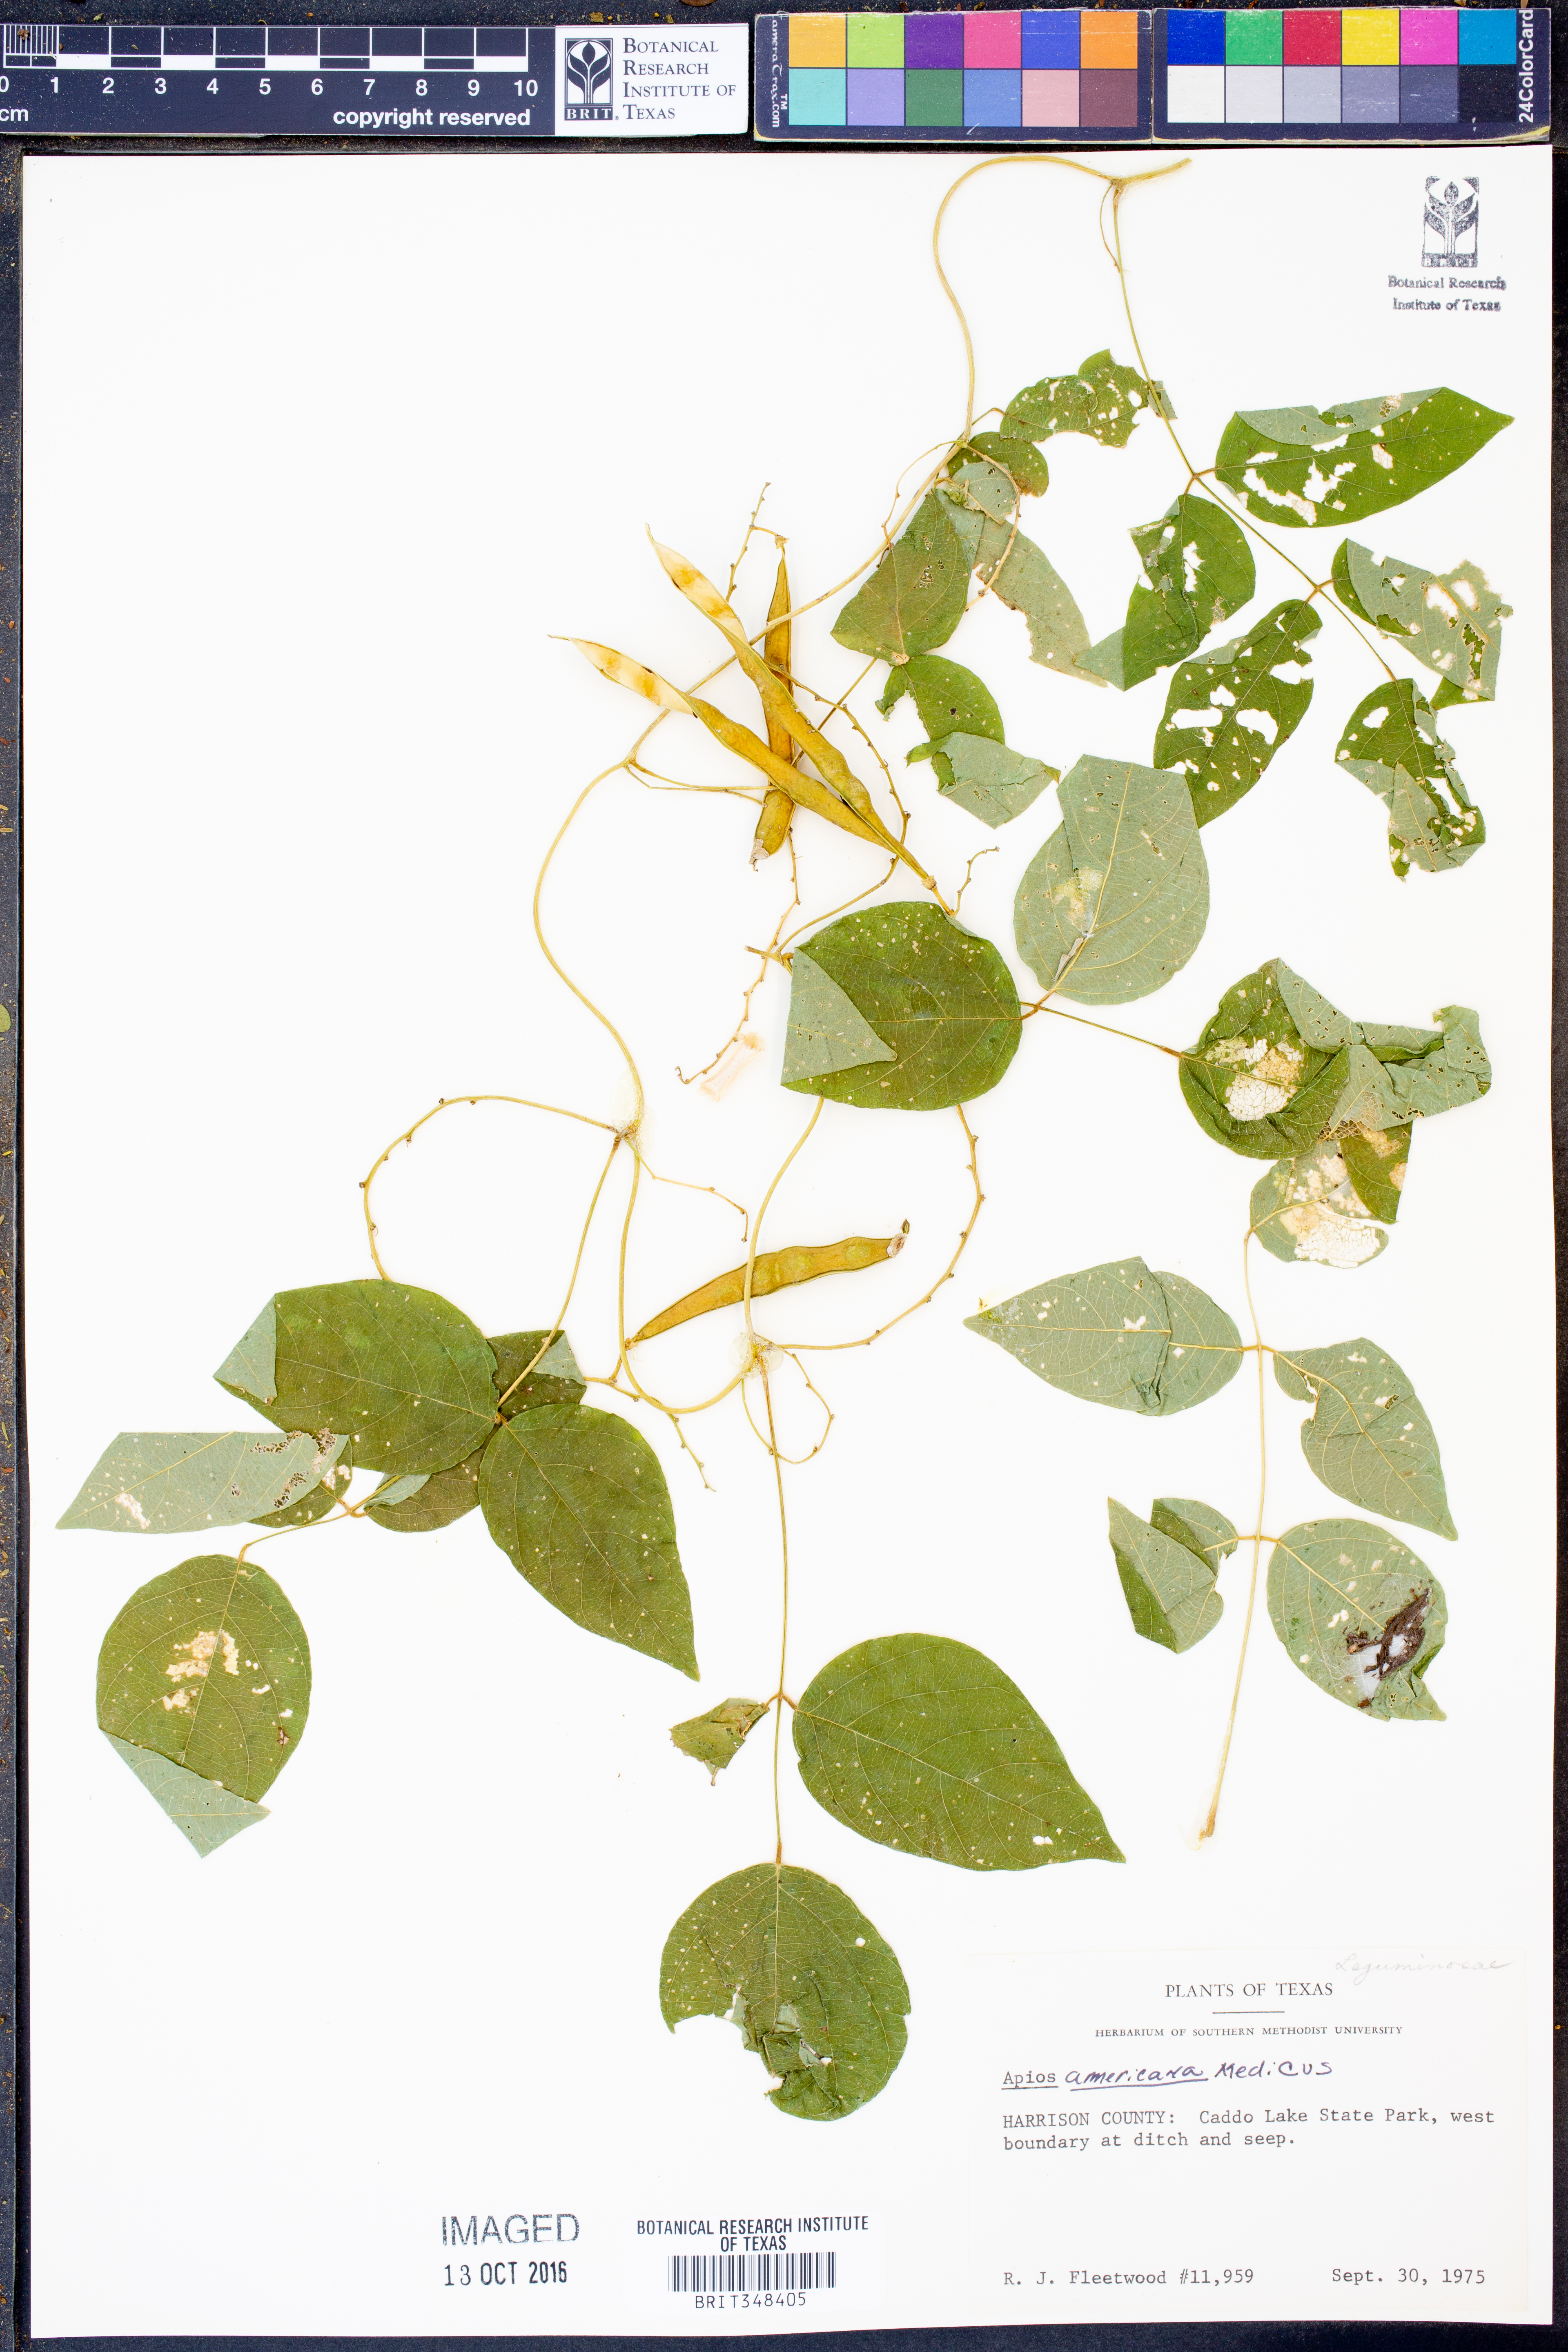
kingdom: Plantae
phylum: Tracheophyta
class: Magnoliopsida
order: Fabales
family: Fabaceae
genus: Apios
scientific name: Apios americana
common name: American potato-bean
